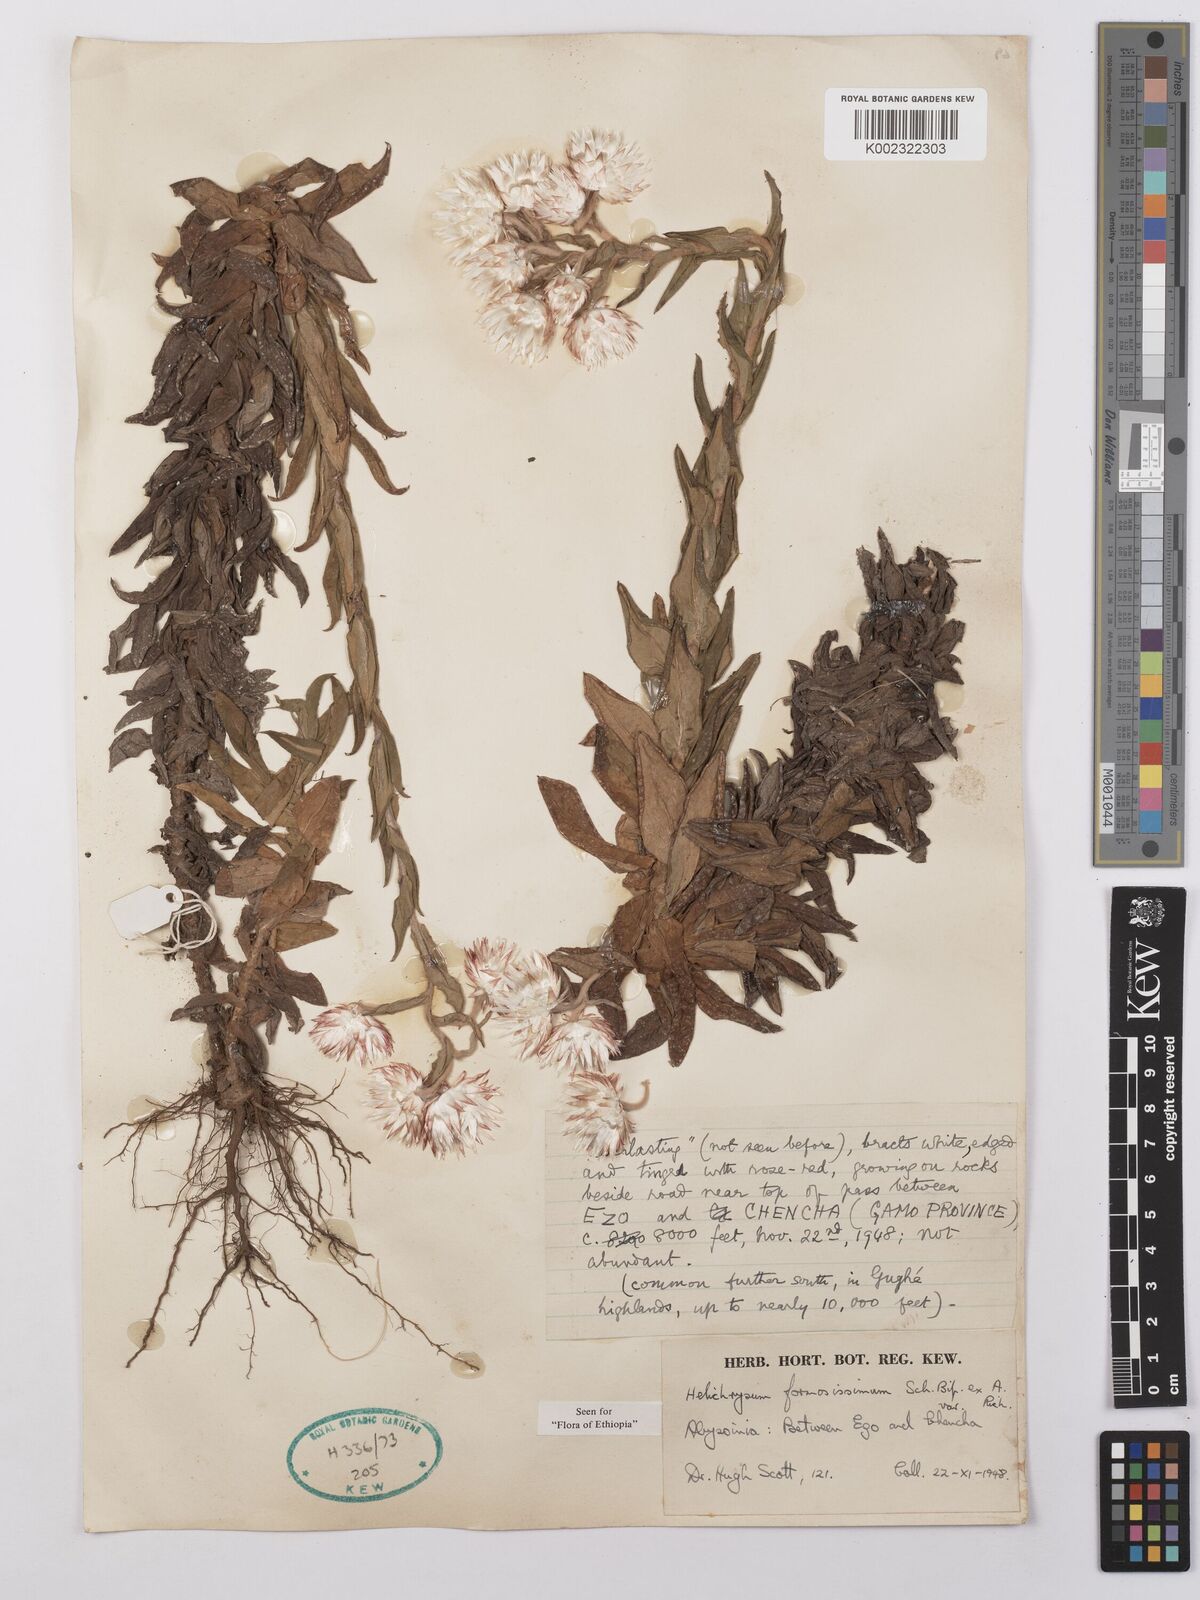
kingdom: Plantae
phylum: Tracheophyta
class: Magnoliopsida
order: Asterales
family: Asteraceae
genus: Helichrysum
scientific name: Helichrysum formosissimum
